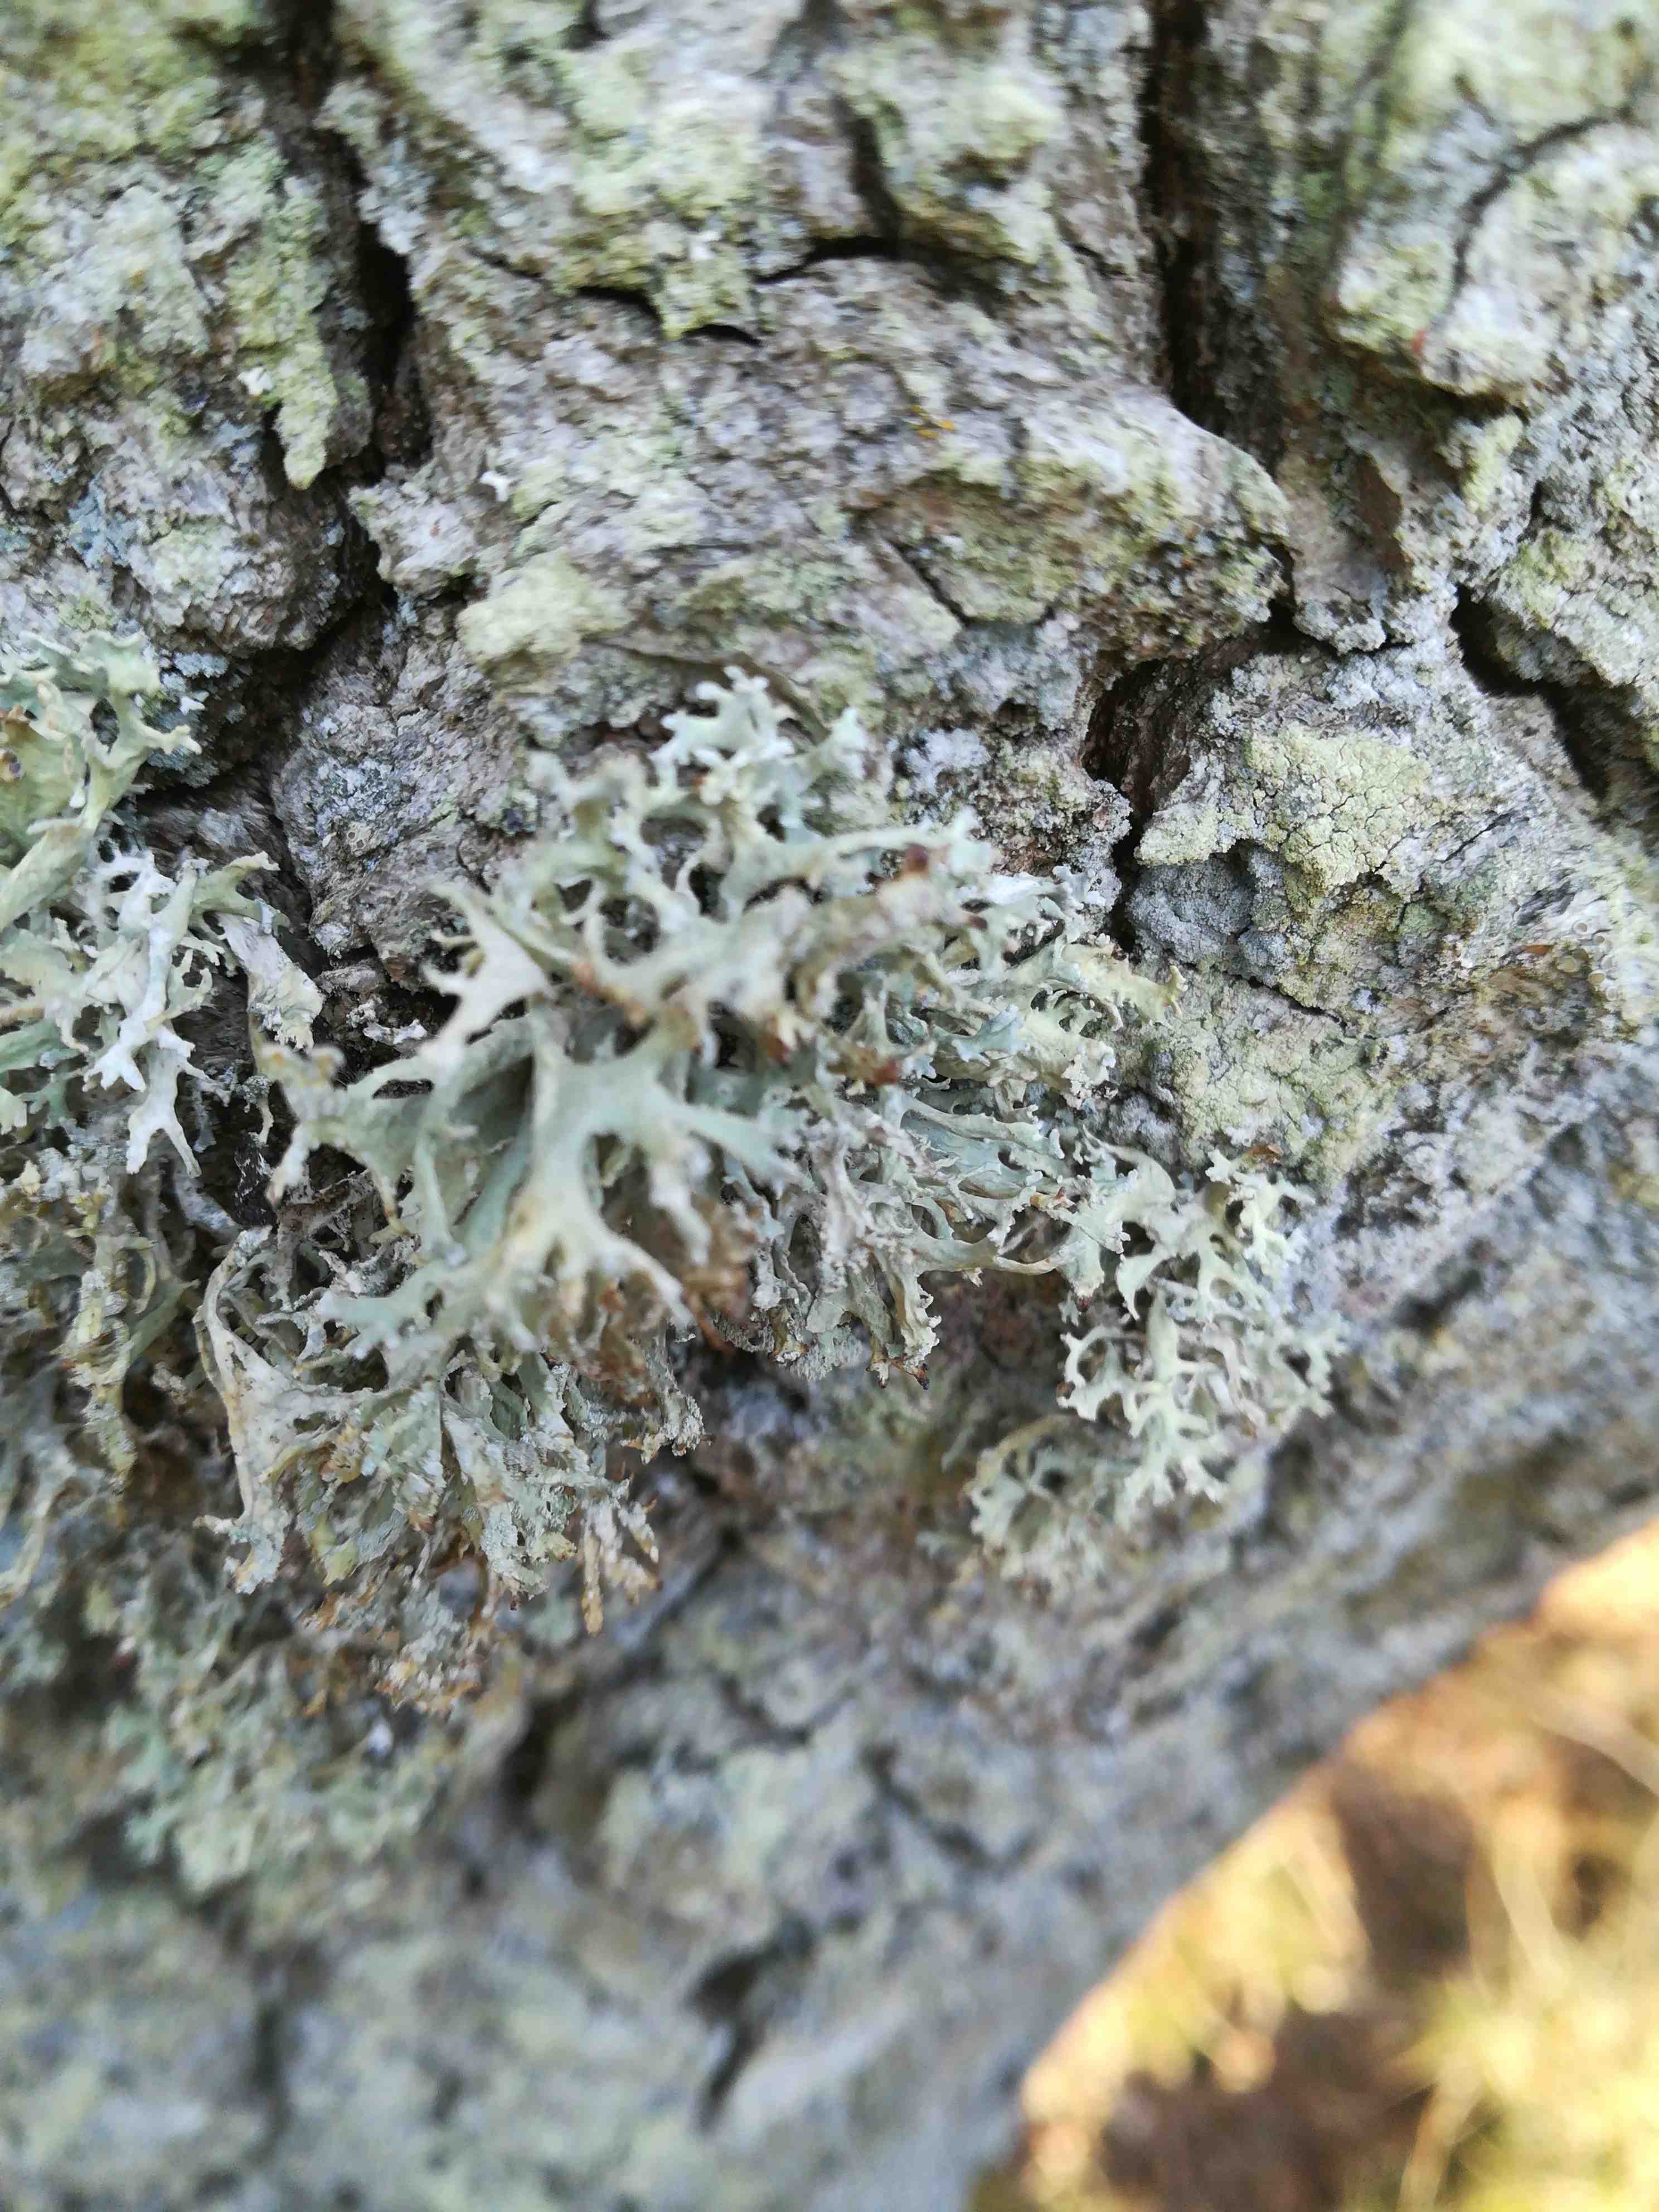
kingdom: Fungi
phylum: Ascomycota
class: Lecanoromycetes
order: Lecanorales
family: Parmeliaceae
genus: Lichen
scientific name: Lichen
